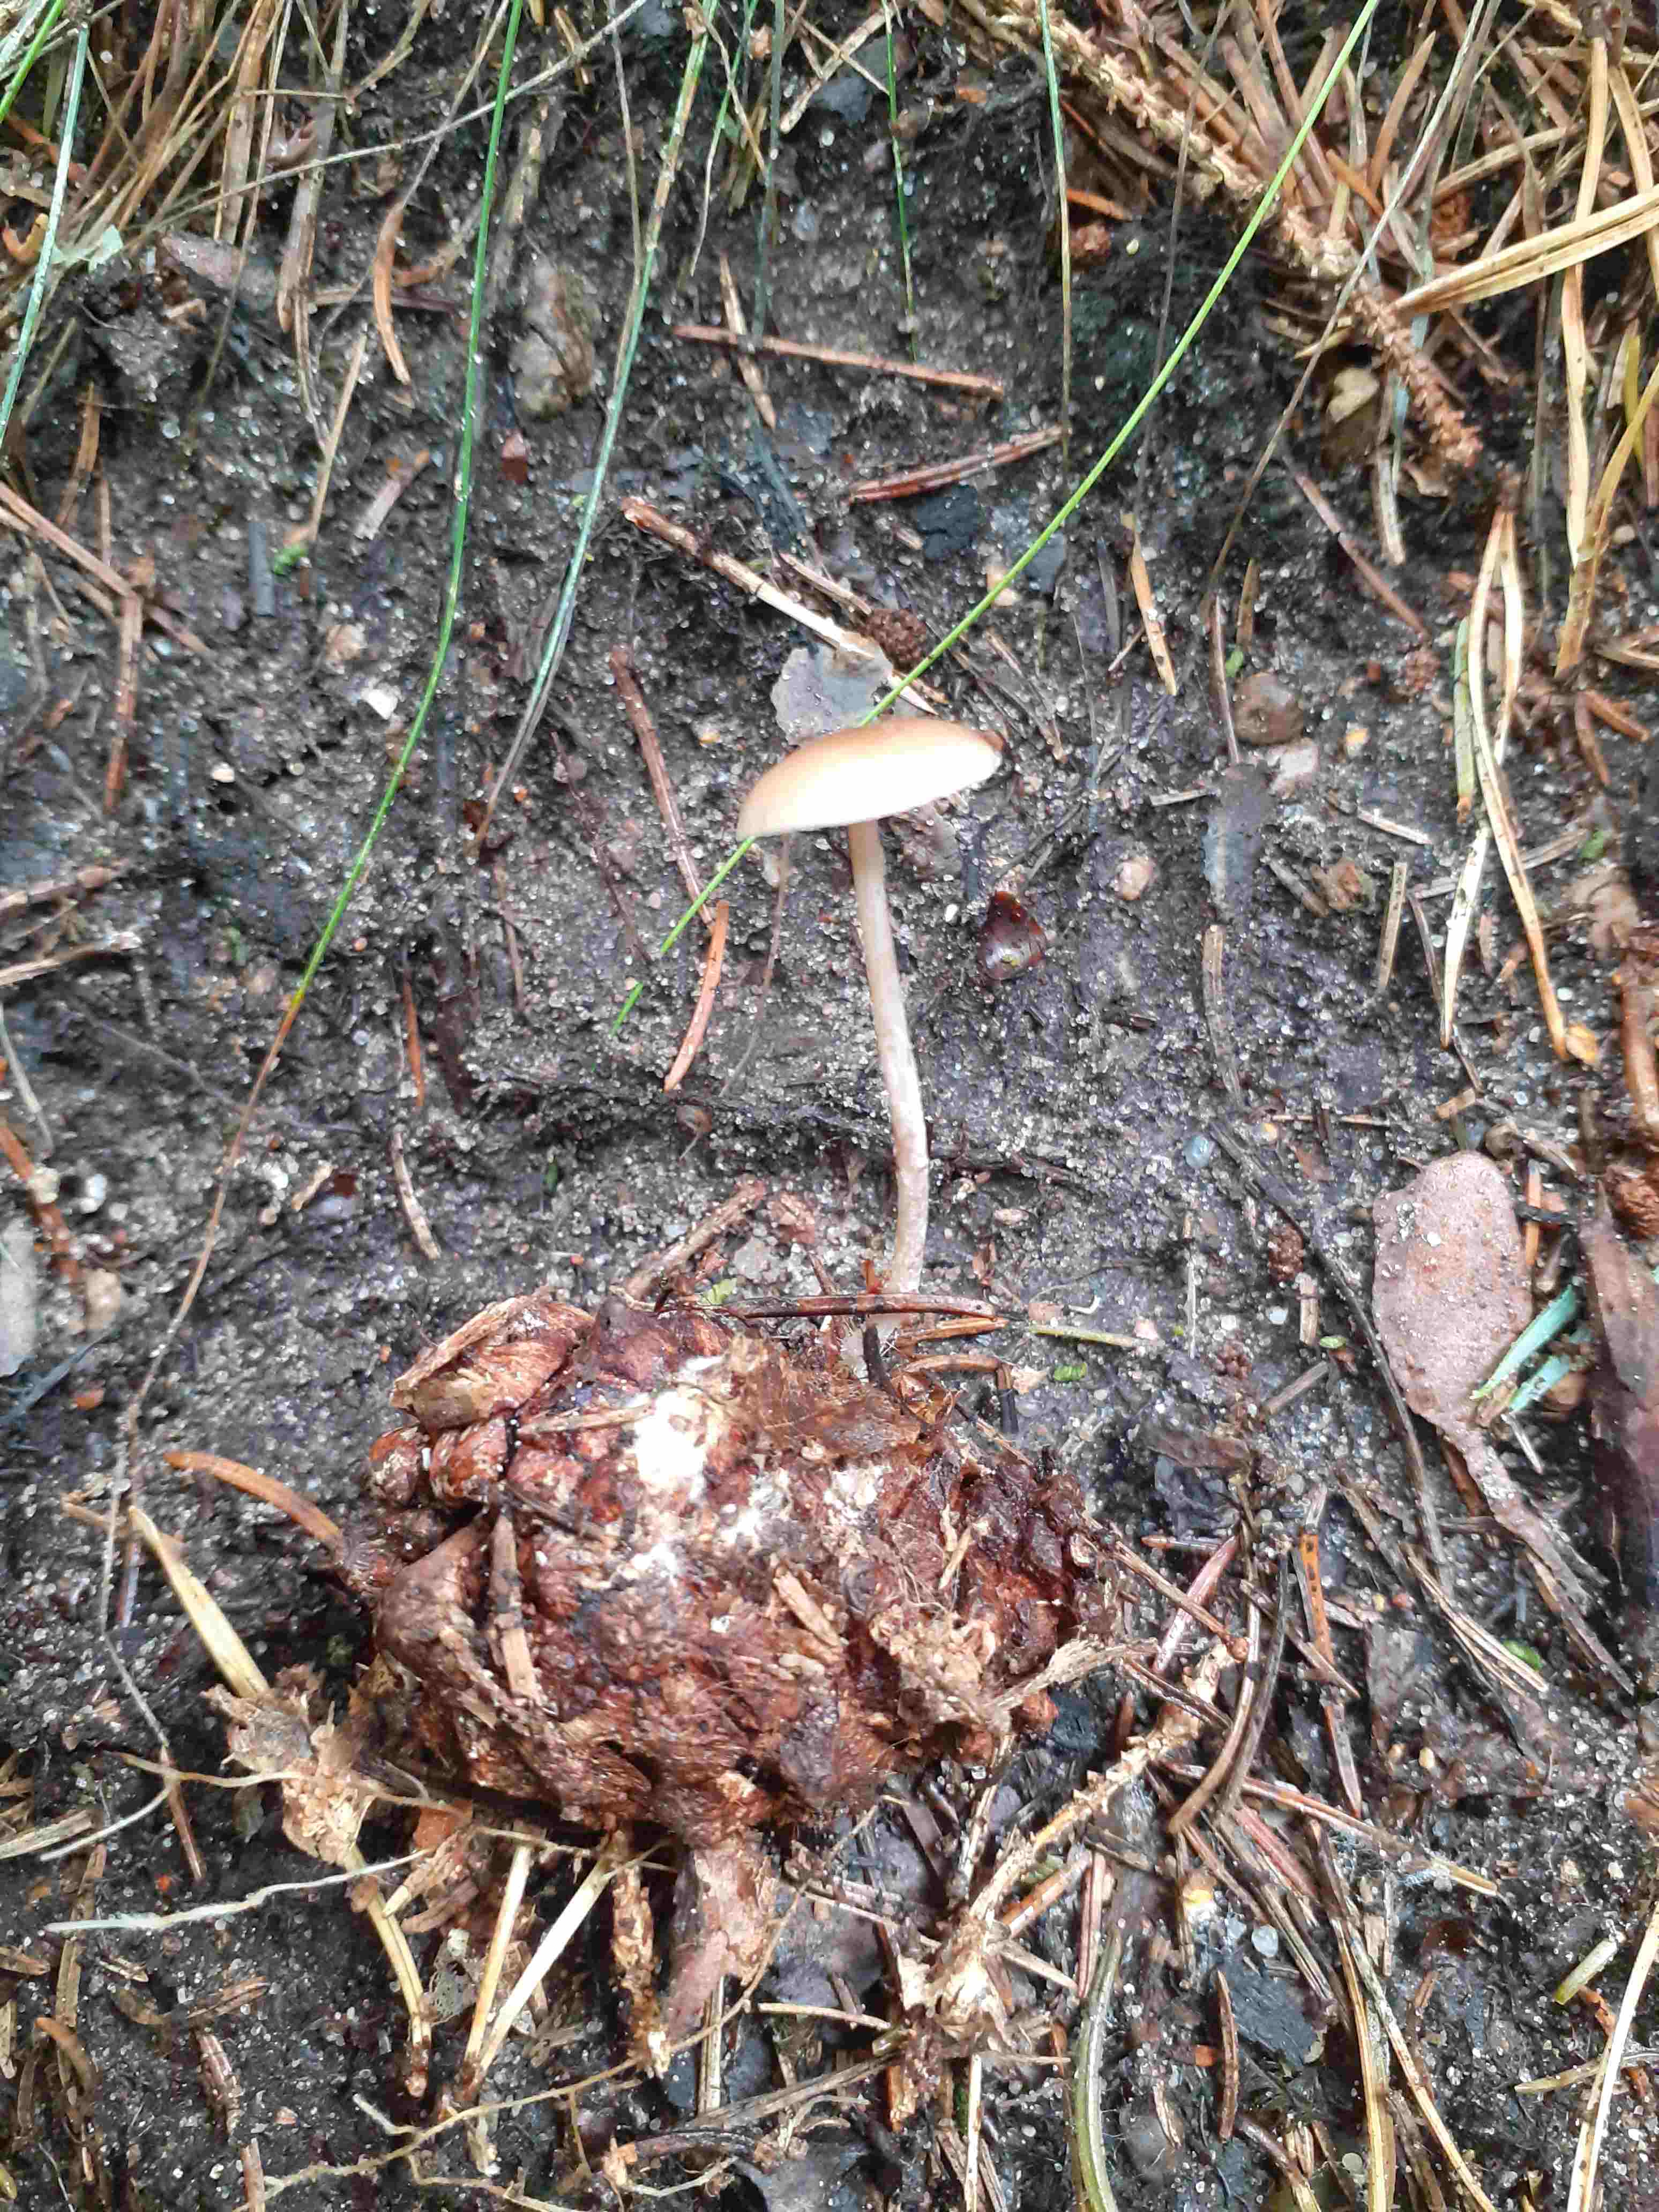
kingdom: Fungi
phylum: Basidiomycota
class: Agaricomycetes
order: Agaricales
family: Marasmiaceae
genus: Baeospora
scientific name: Baeospora myosura
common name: koglebruskhat
